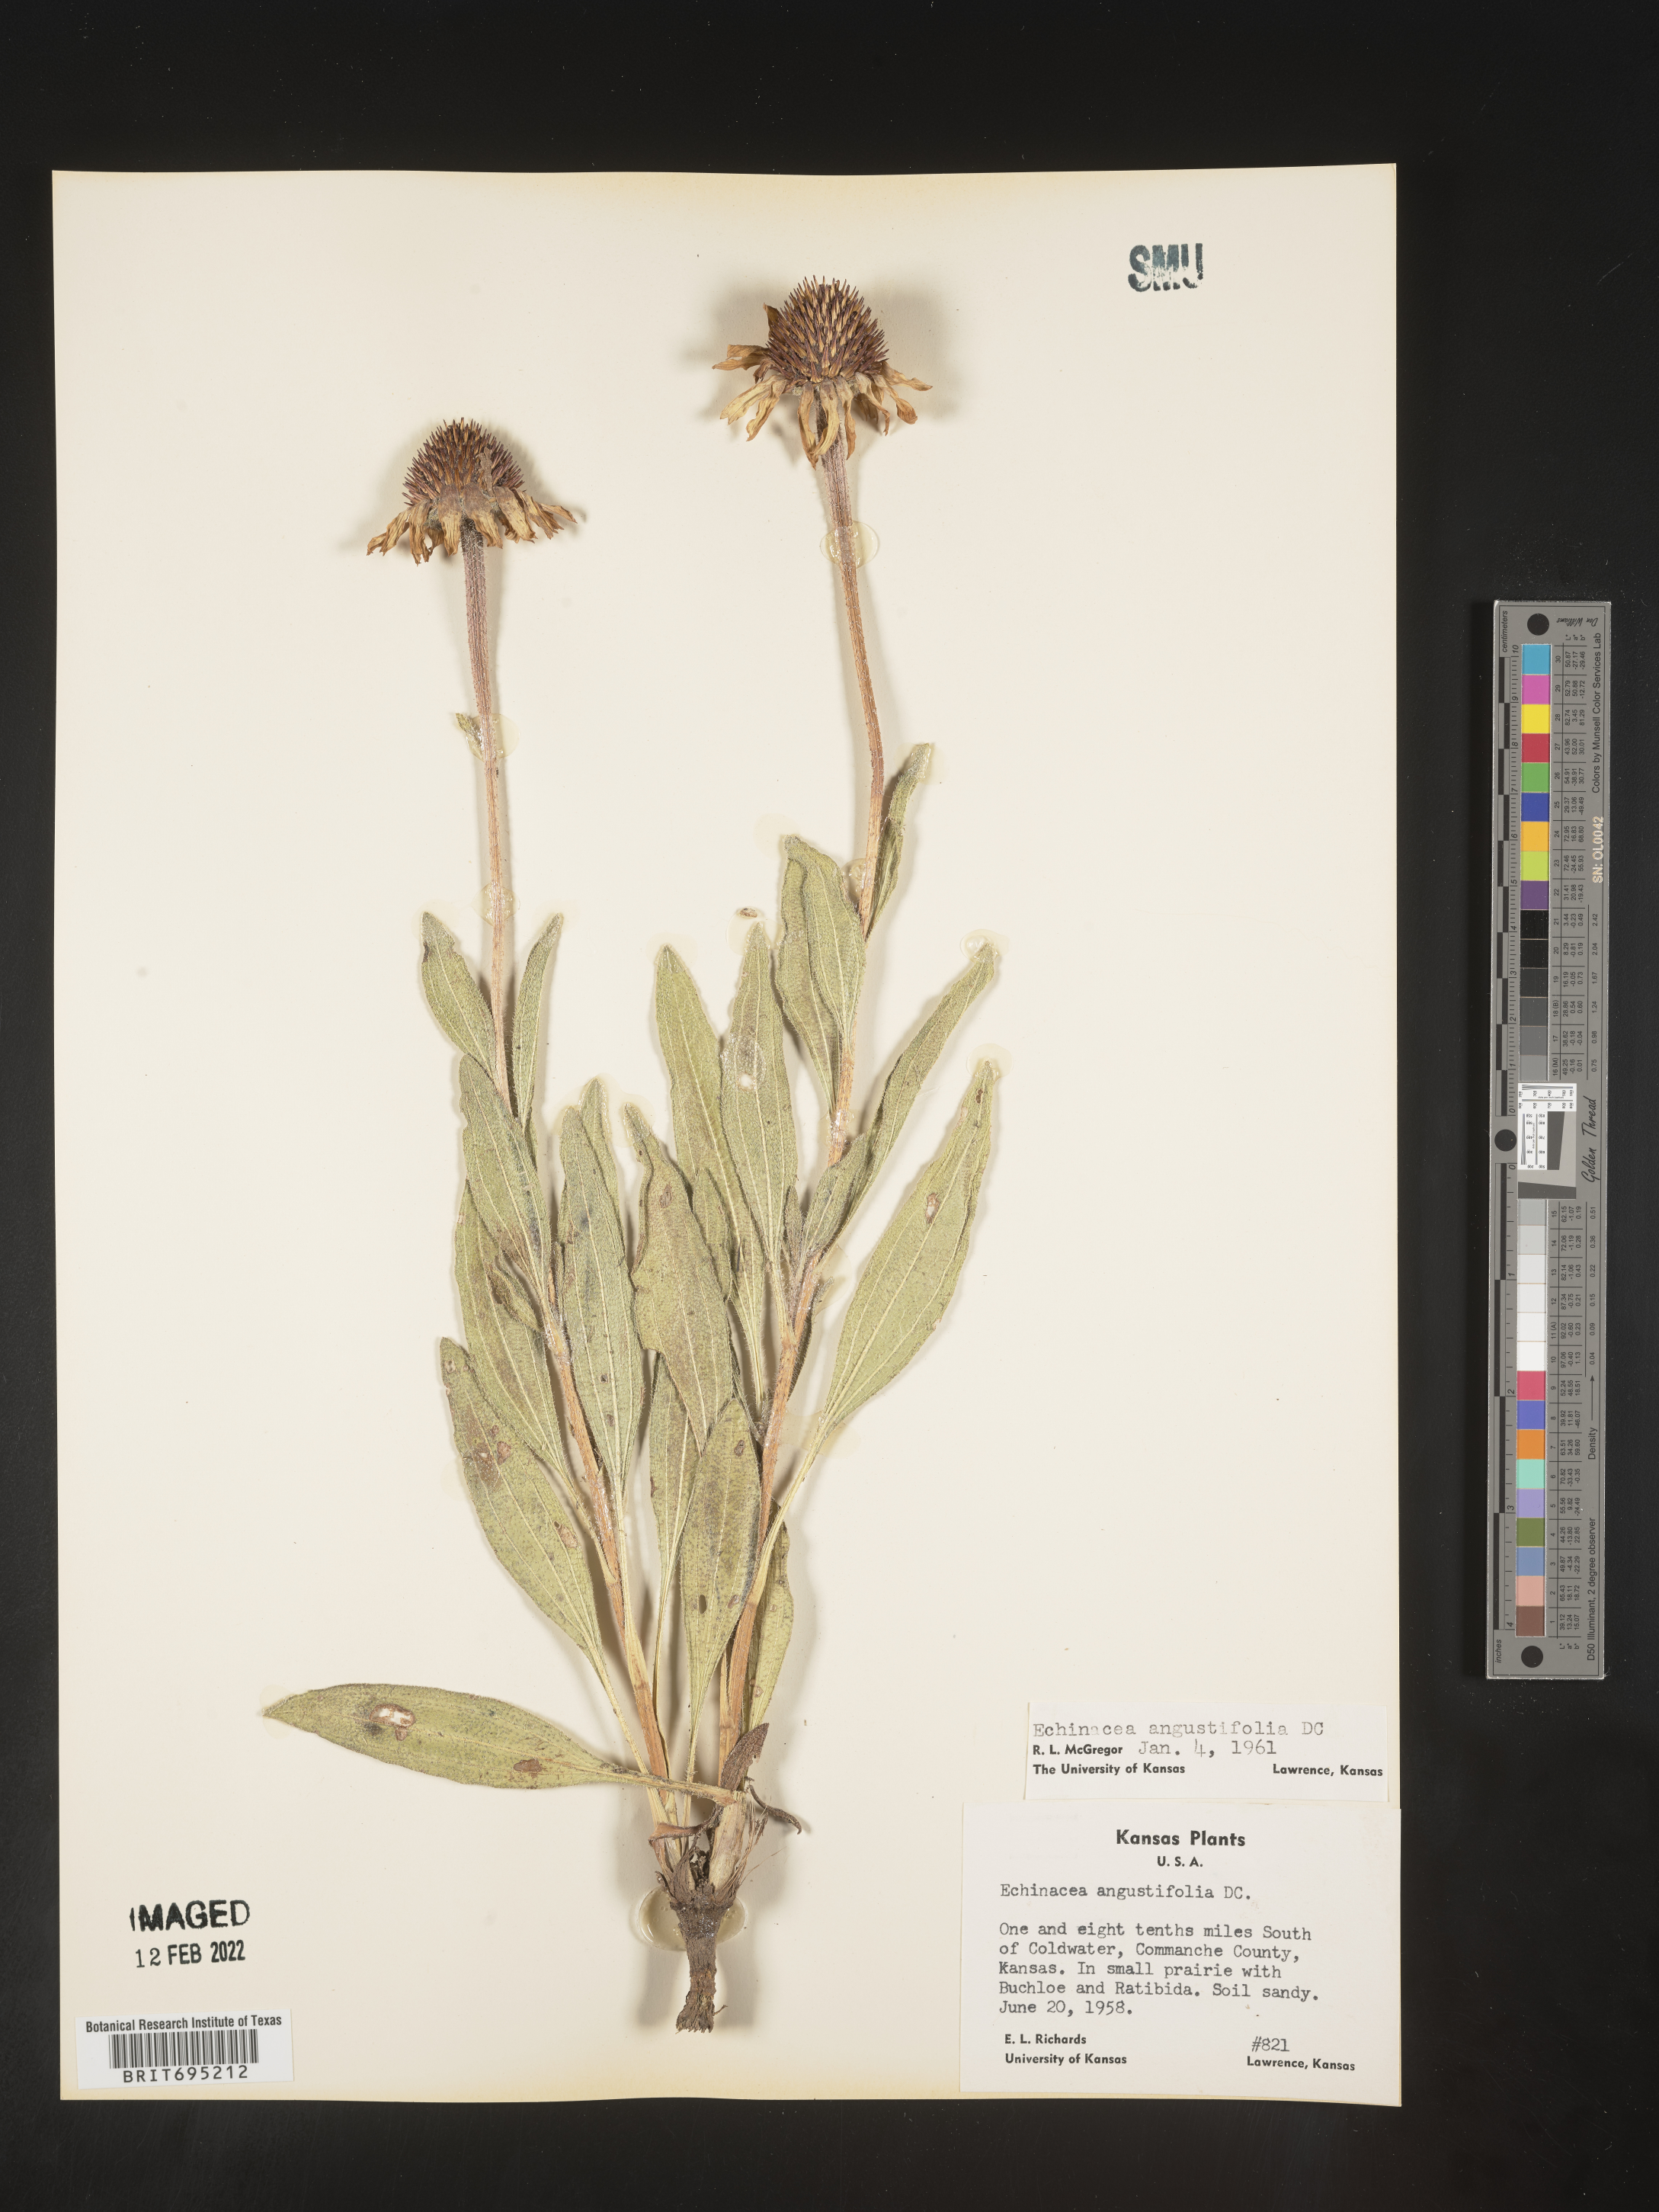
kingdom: Plantae
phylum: Tracheophyta
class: Magnoliopsida
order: Asterales
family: Asteraceae
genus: Echinacea
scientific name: Echinacea angustifolia
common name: Black-sampson echinacea
